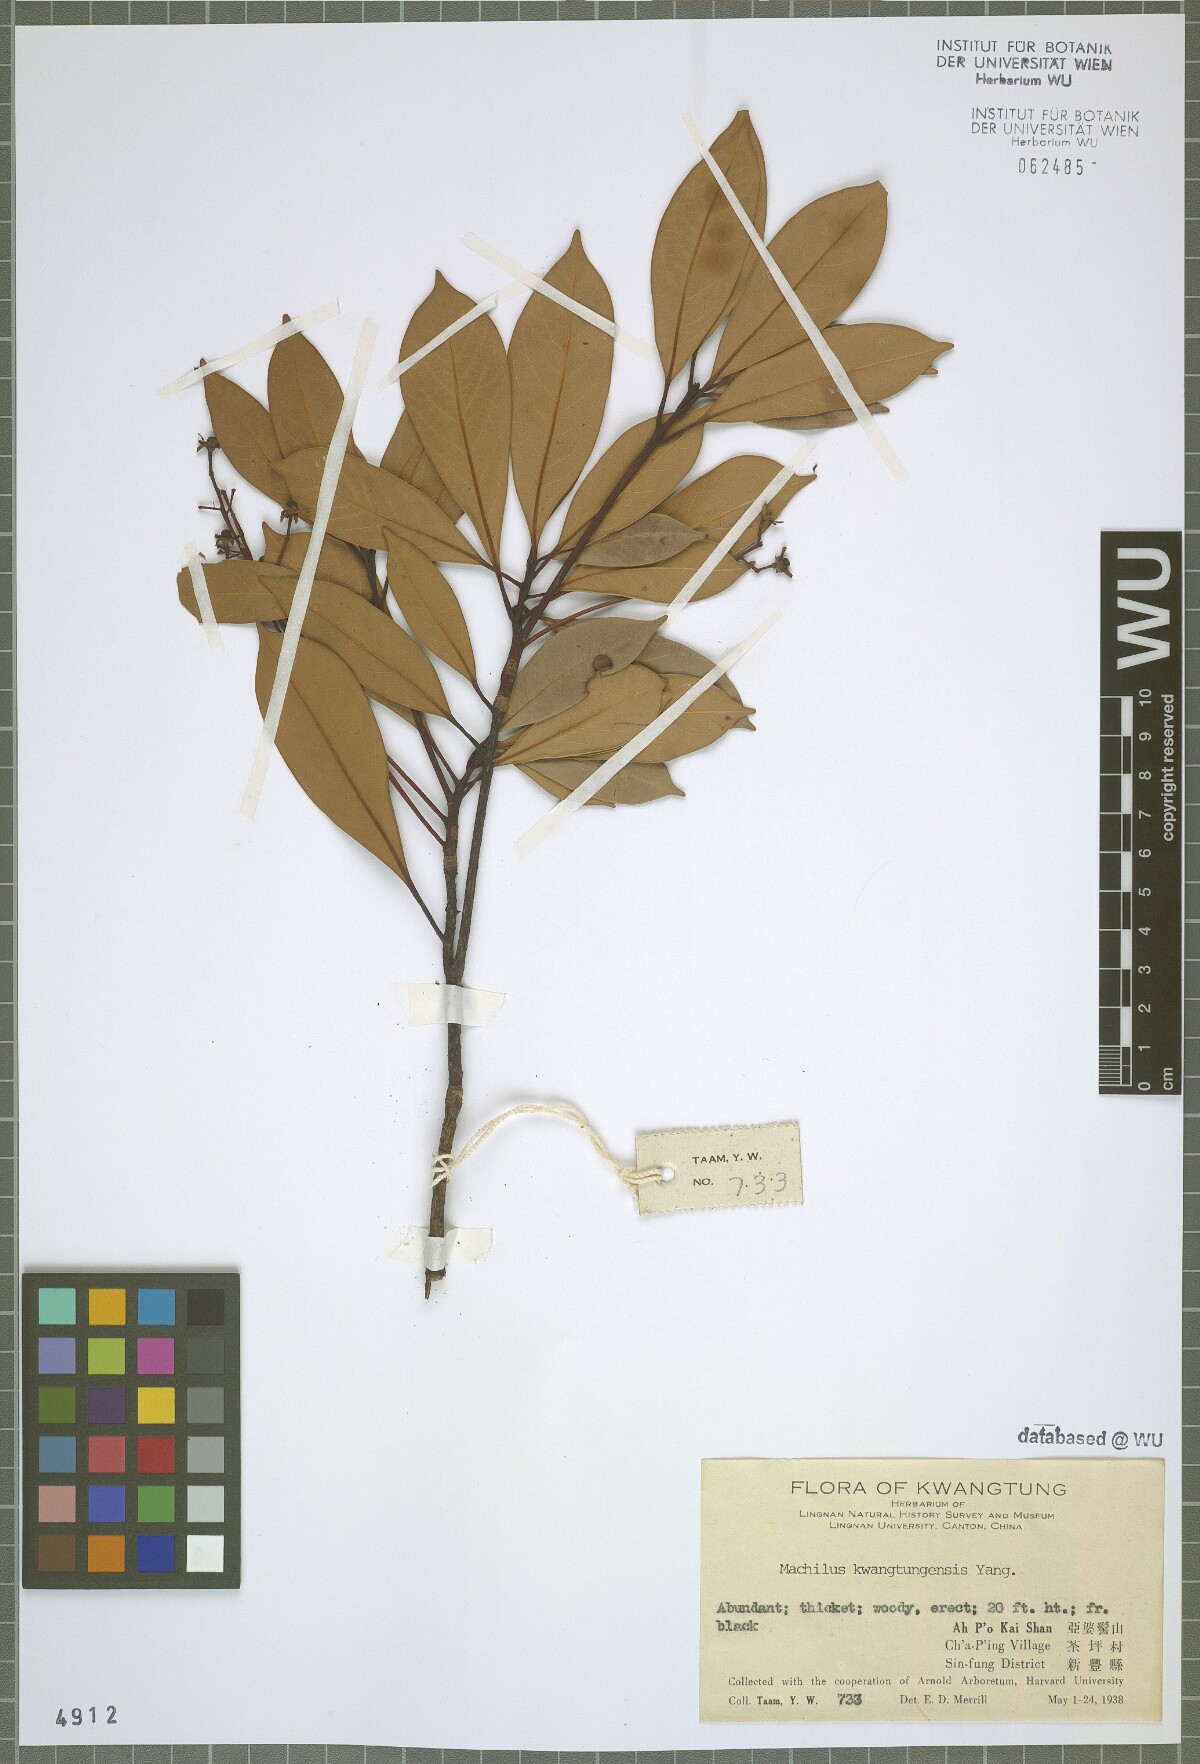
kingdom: Plantae
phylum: Tracheophyta
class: Magnoliopsida
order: Laurales
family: Lauraceae
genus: Machilus
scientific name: Machilus kwangtungensis
